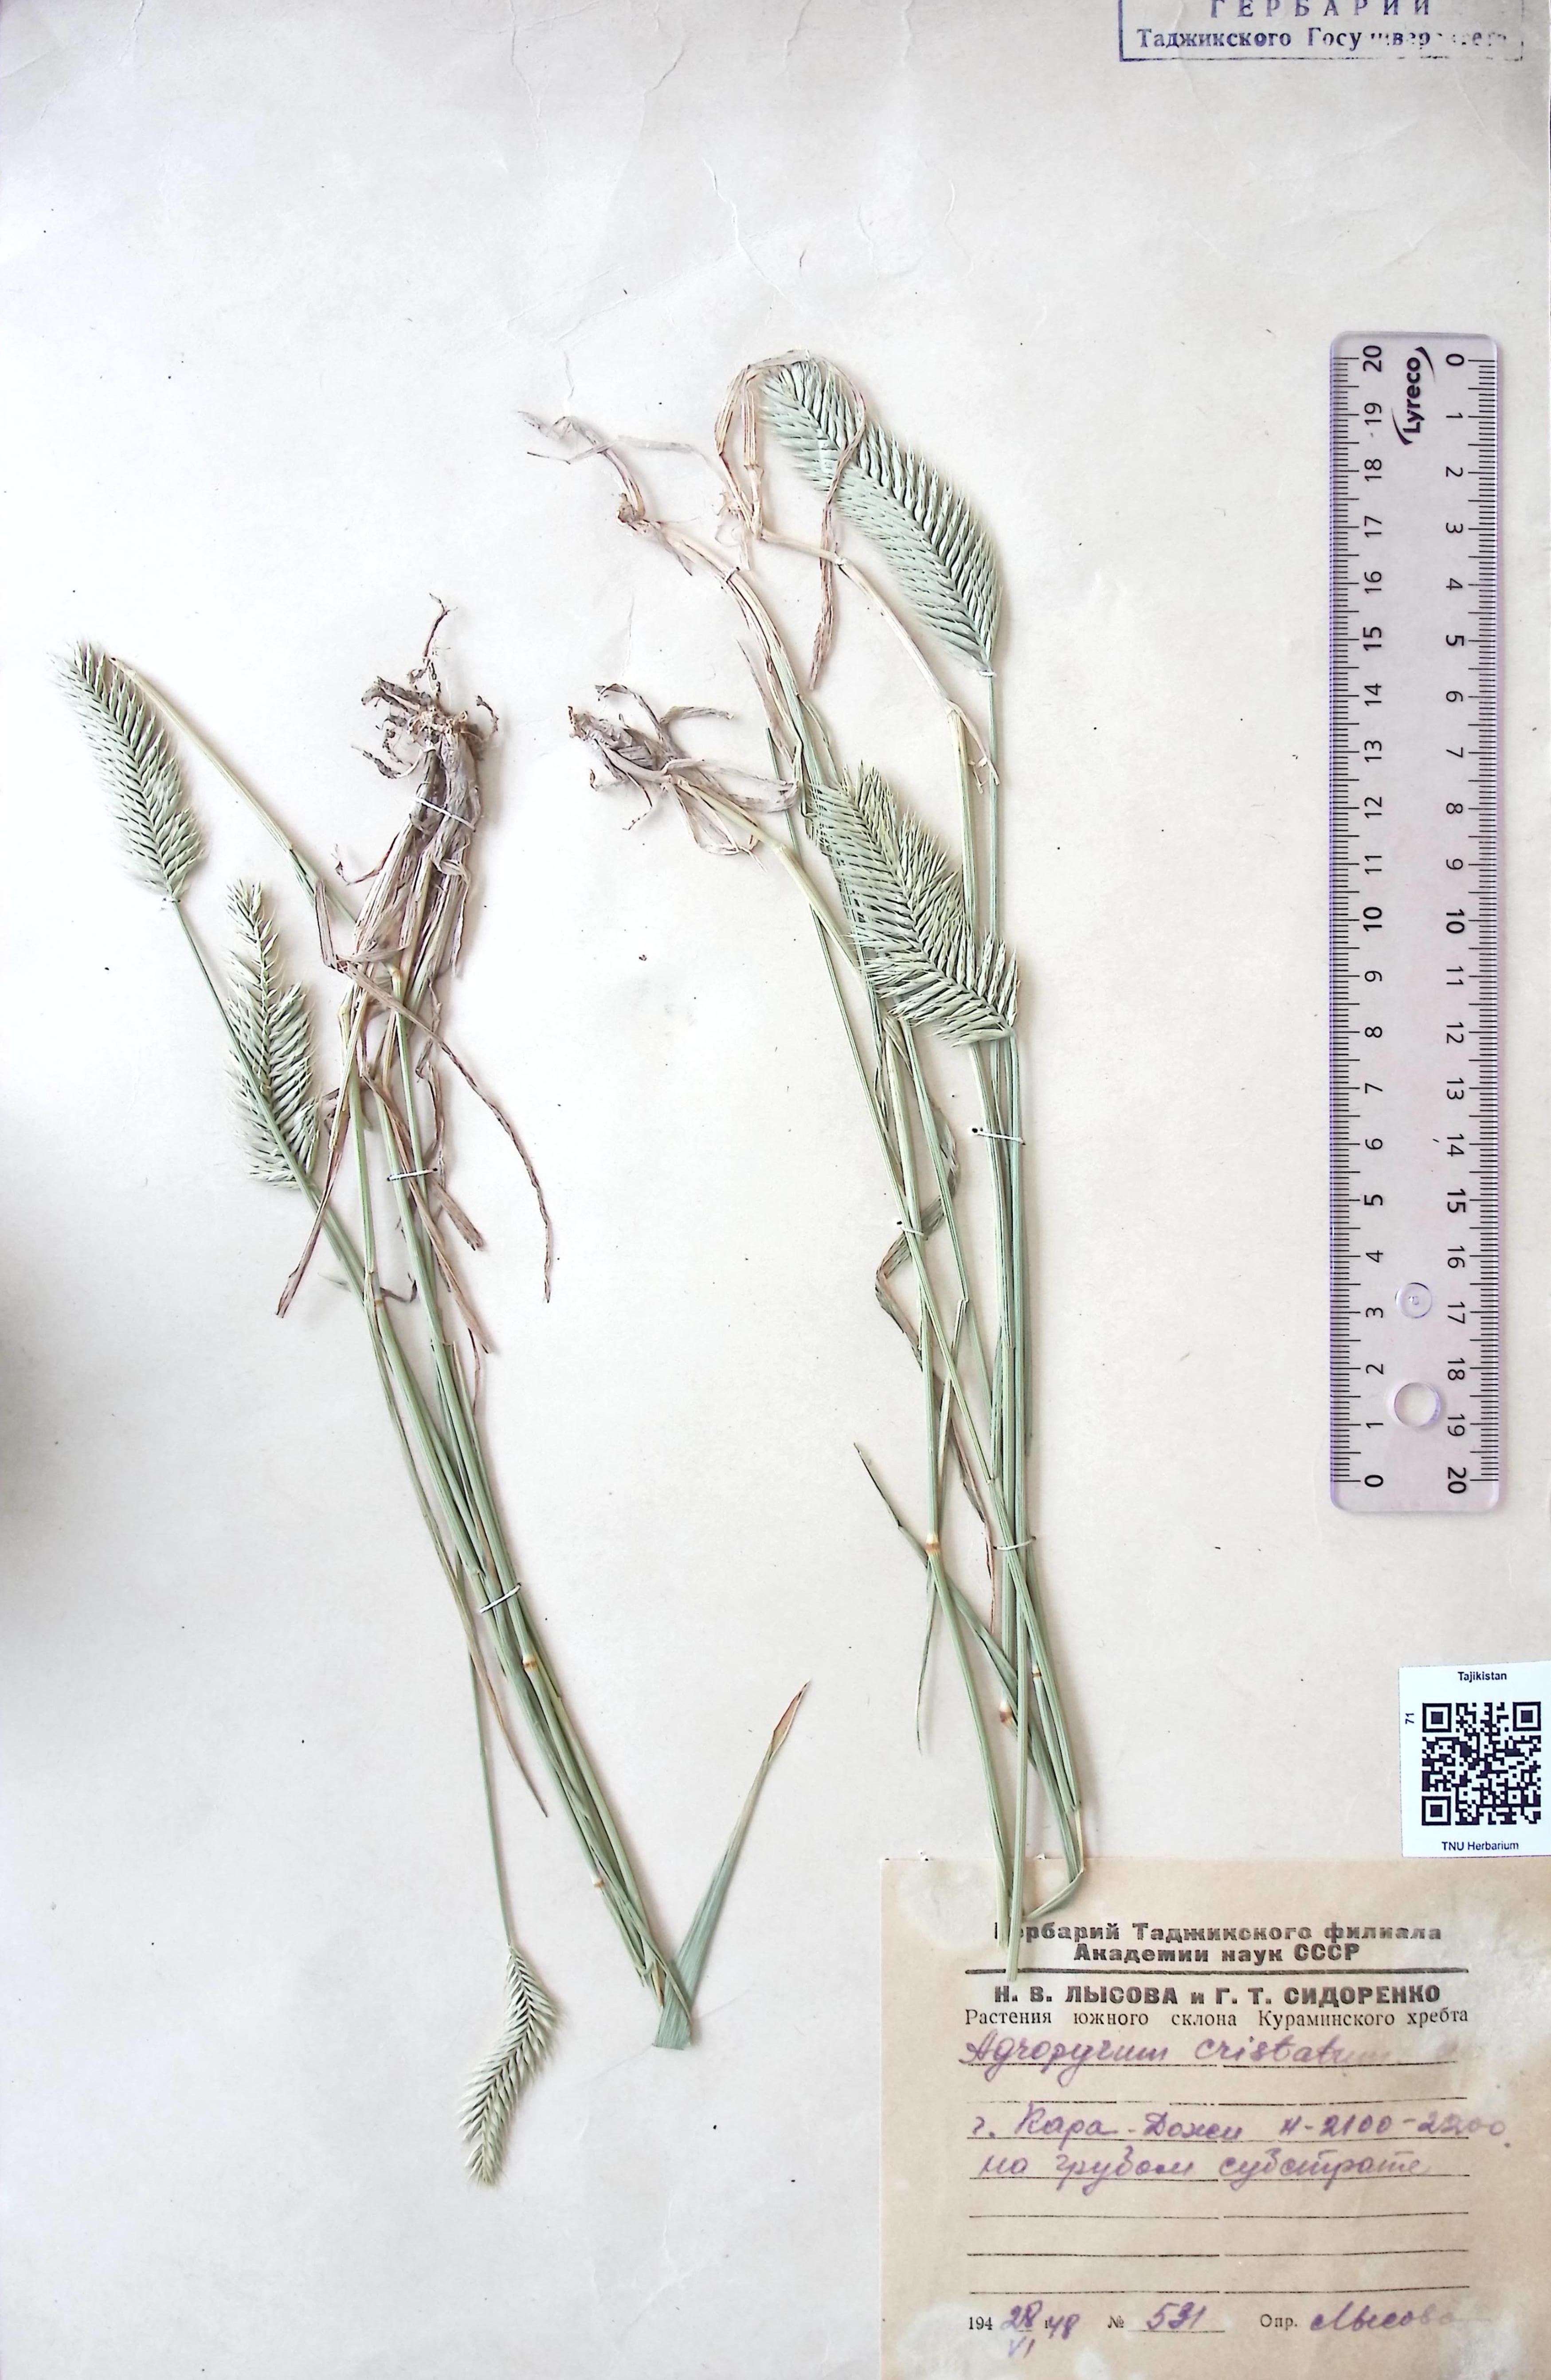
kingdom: Plantae
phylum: Tracheophyta
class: Liliopsida
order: Poales
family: Poaceae
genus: Agropyron
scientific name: Agropyron cristatum
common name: Crested wheatgrass
